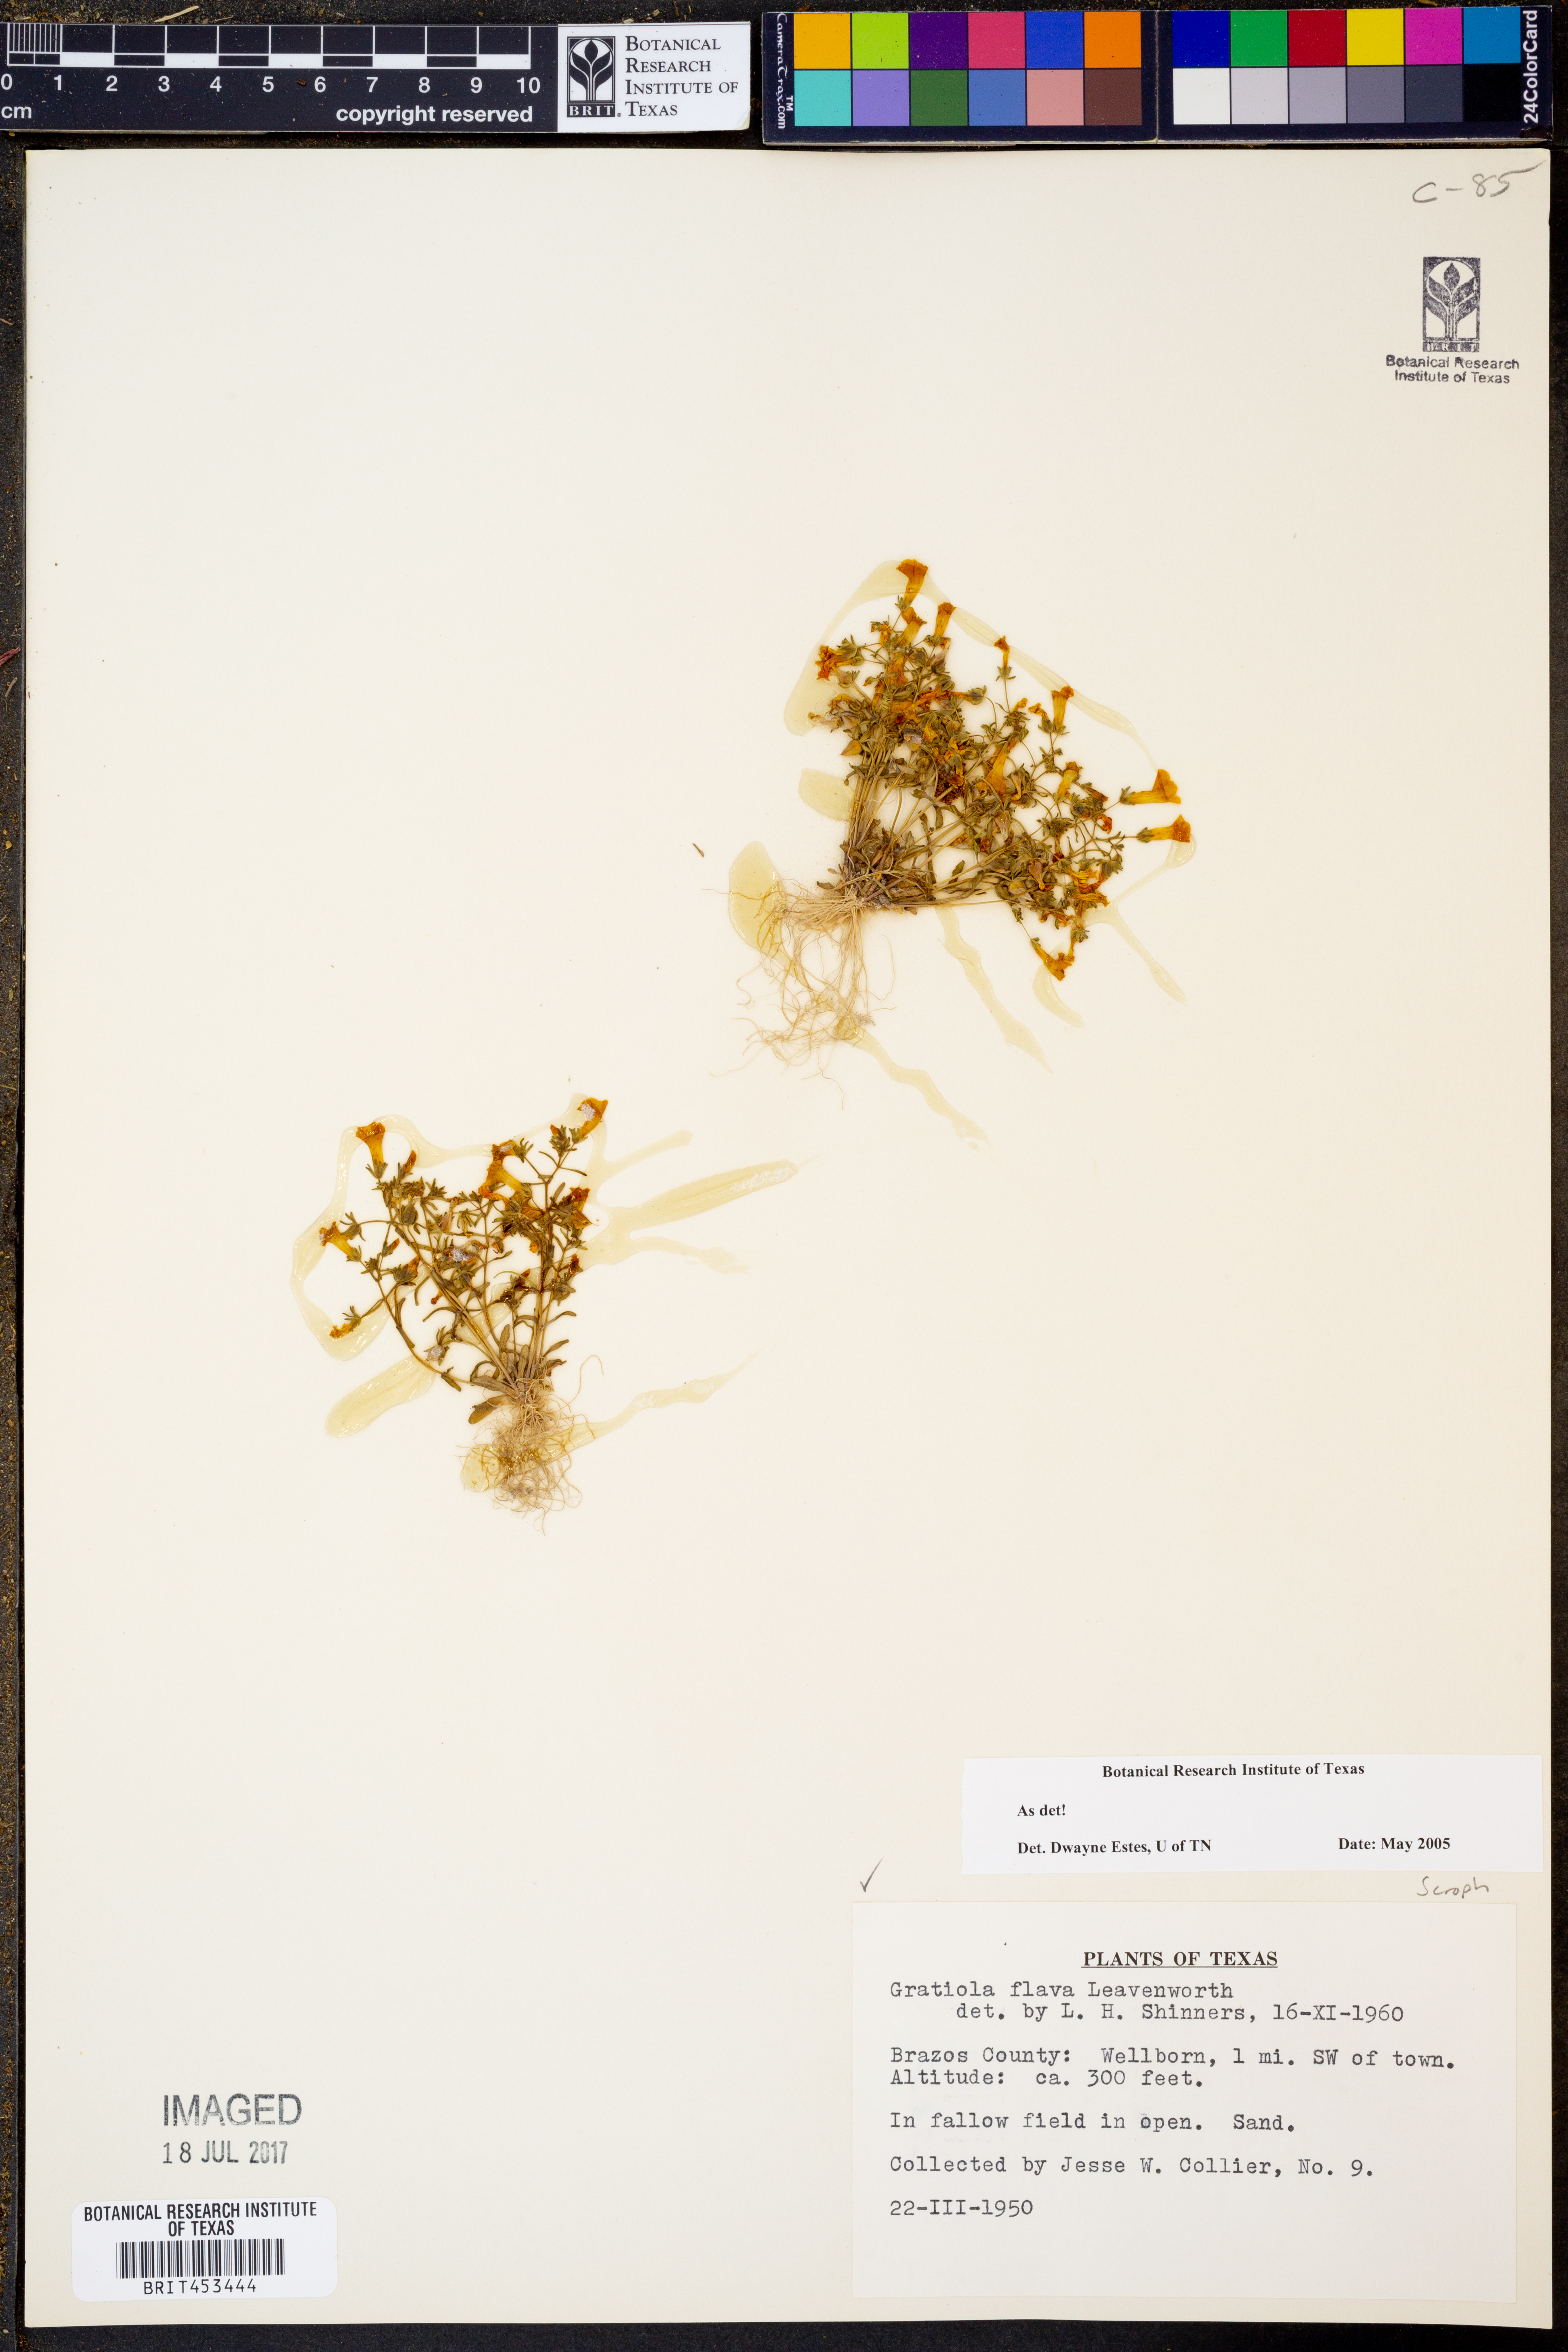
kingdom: Plantae
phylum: Tracheophyta
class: Magnoliopsida
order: Lamiales
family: Plantaginaceae
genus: Gratiola
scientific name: Gratiola flava
